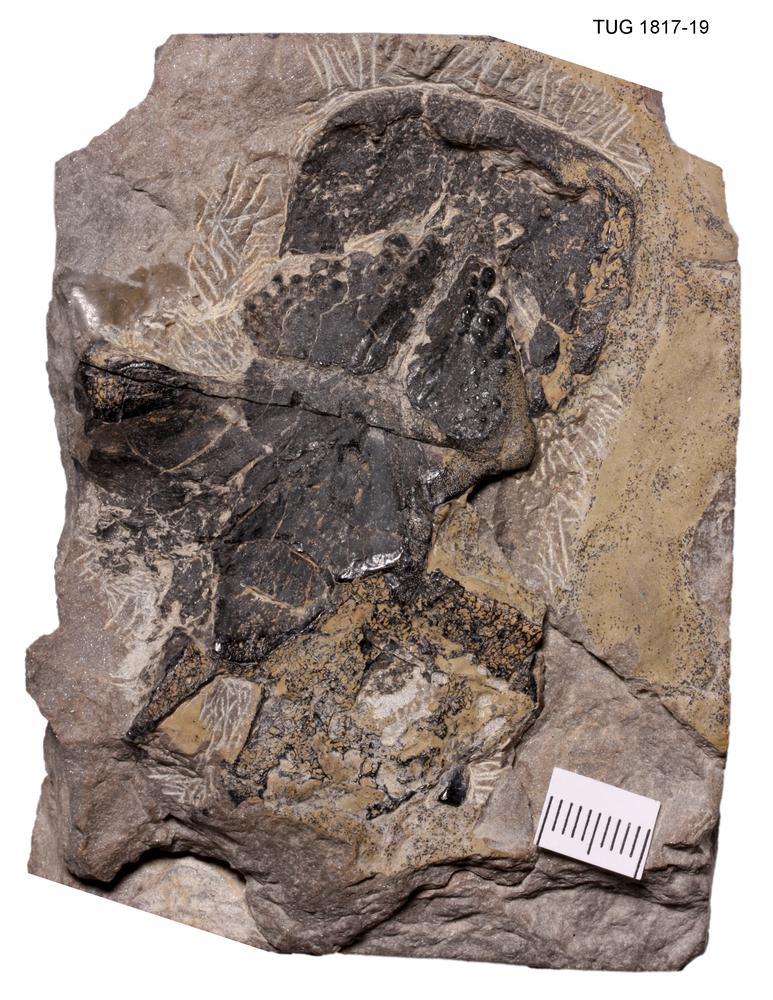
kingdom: Animalia
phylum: Chordata
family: Dipteridae
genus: Dipterus
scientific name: Dipterus valenciennesi
